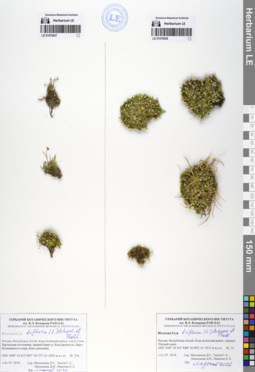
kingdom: Plantae
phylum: Tracheophyta
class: Magnoliopsida
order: Caryophyllales
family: Caryophyllaceae
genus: Cherleria
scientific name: Cherleria biflora
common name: Mountain sandwort
